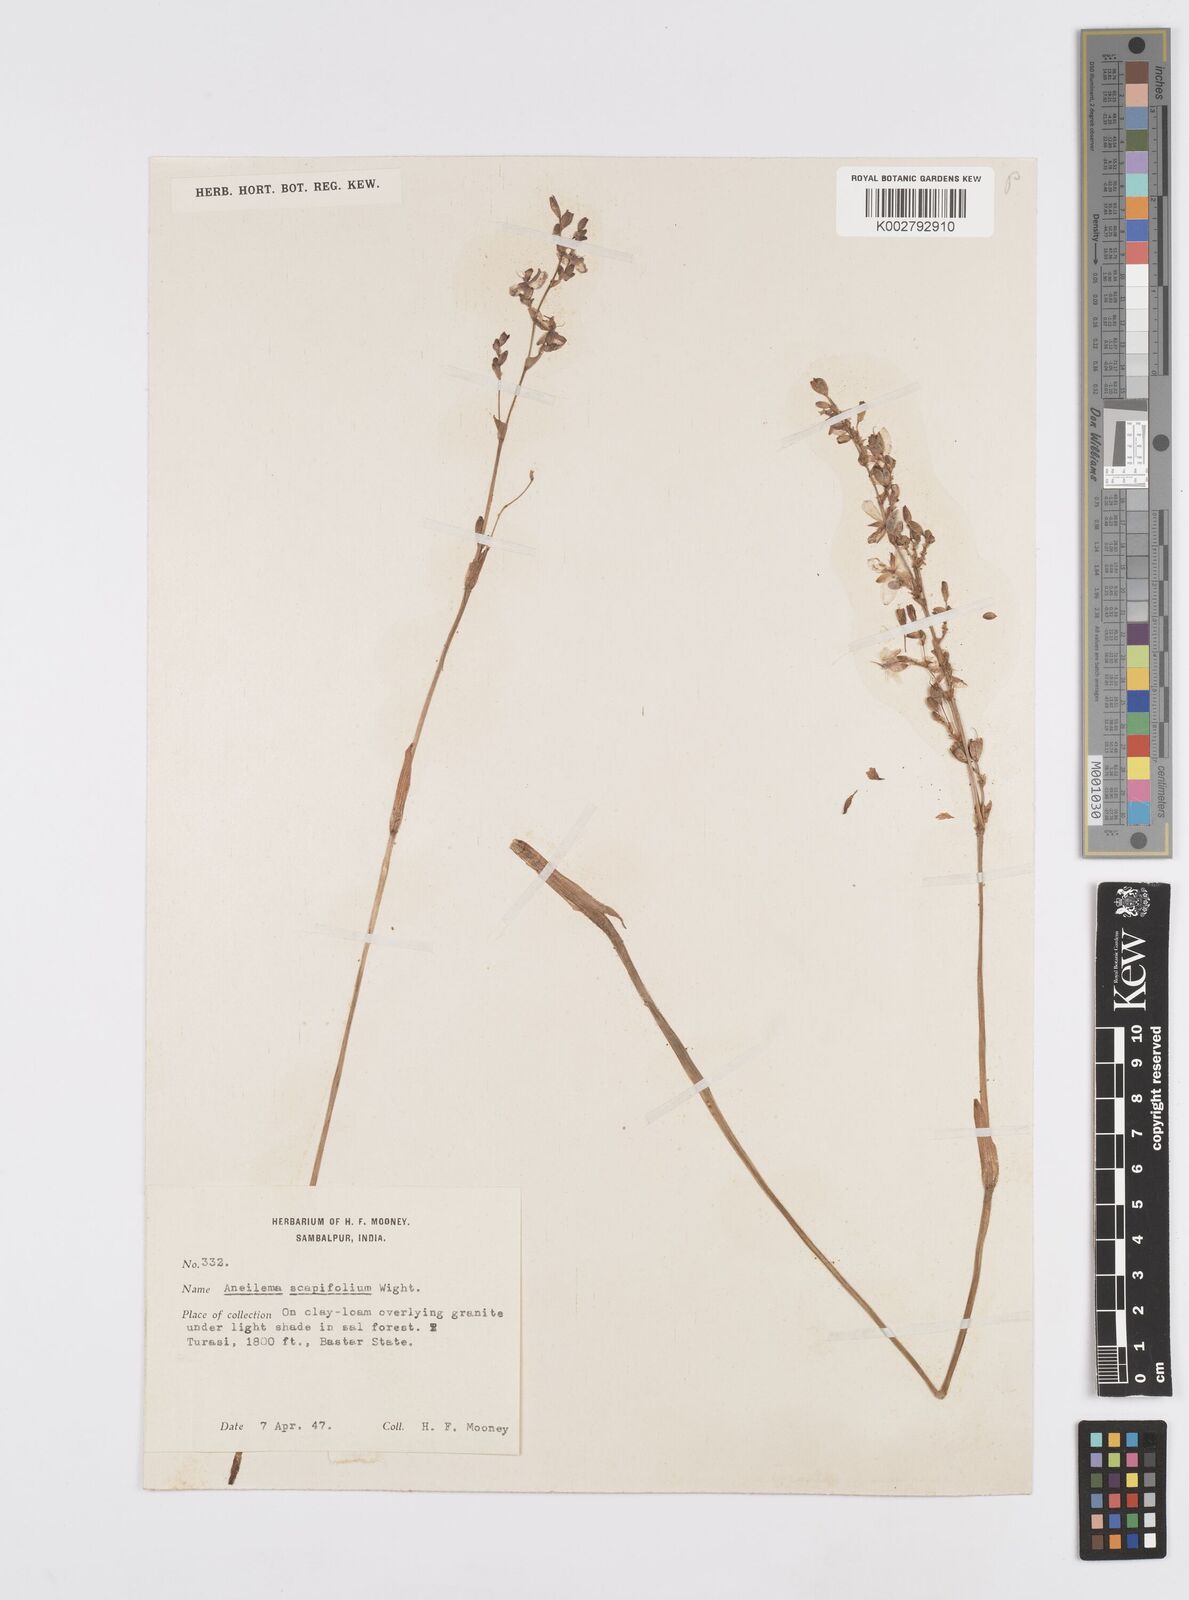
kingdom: Plantae
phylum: Tracheophyta
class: Liliopsida
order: Commelinales
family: Commelinaceae
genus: Murdannia
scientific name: Murdannia edulis
